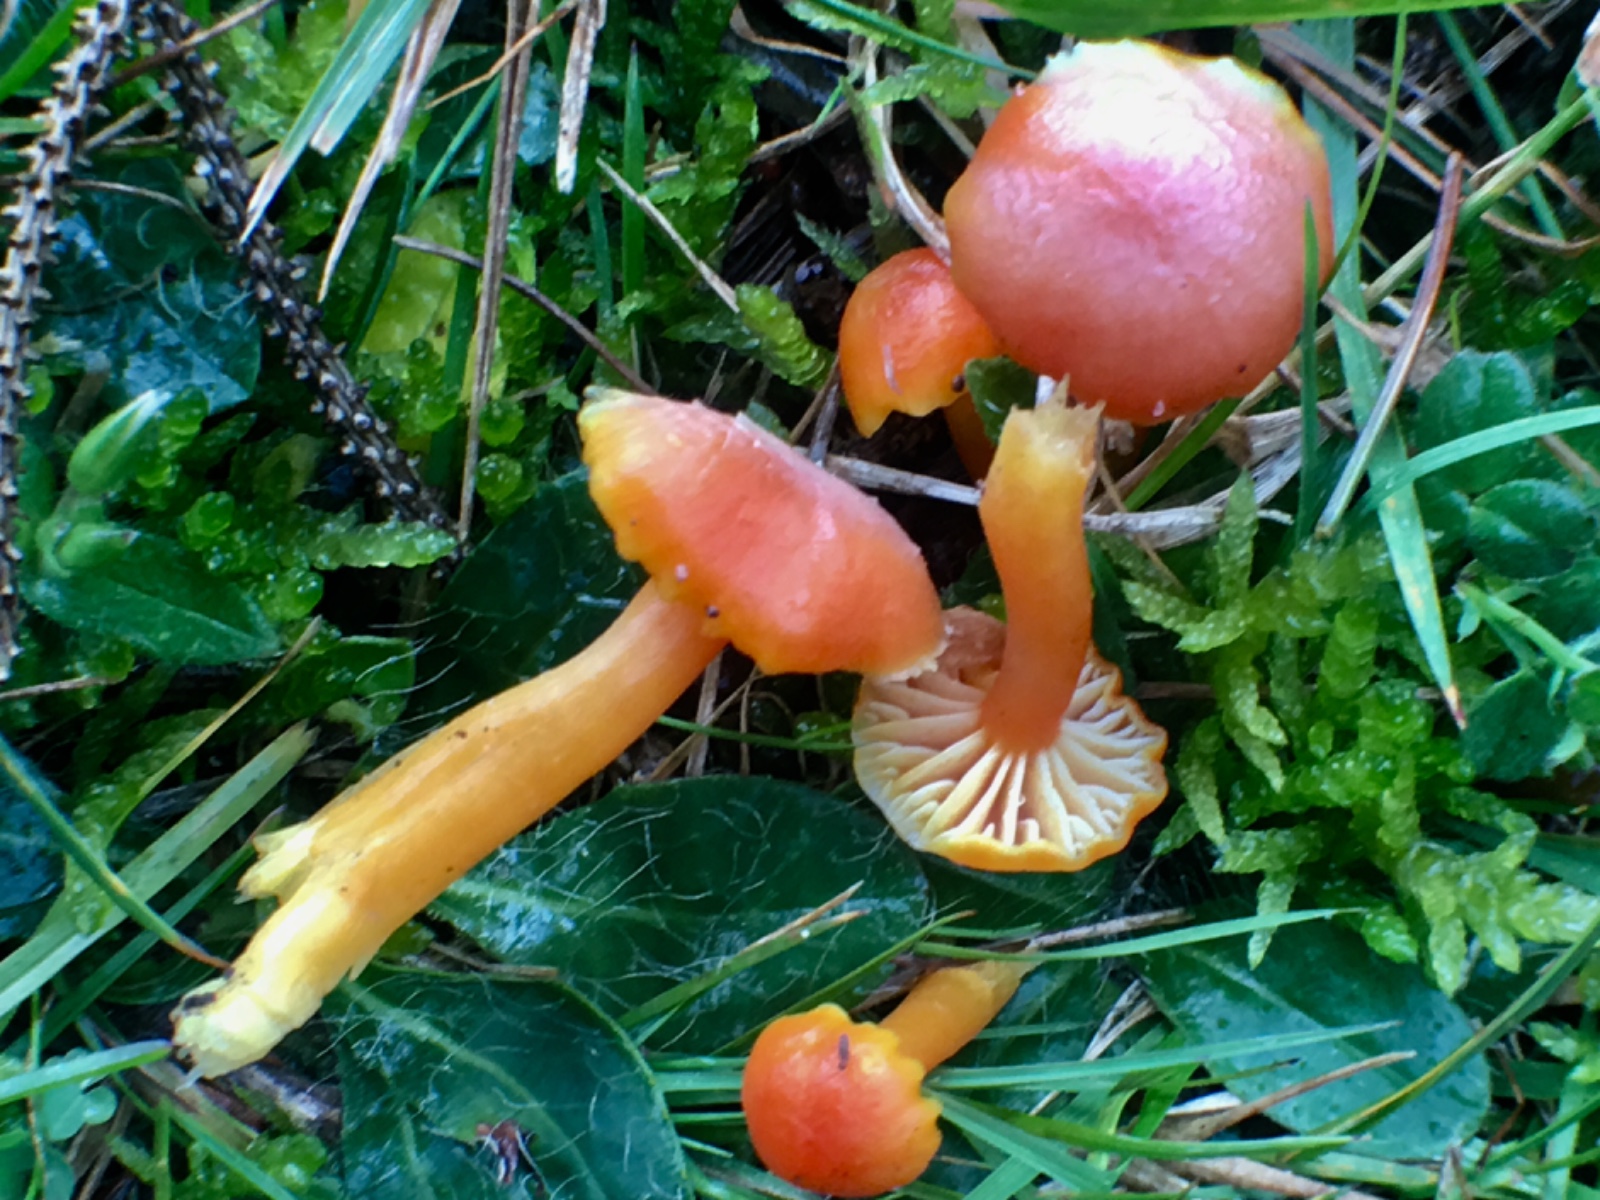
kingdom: Fungi
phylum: Basidiomycota
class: Agaricomycetes
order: Agaricales
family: Hygrophoraceae
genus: Hygrocybe
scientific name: Hygrocybe reidii
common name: honning-vokshat
